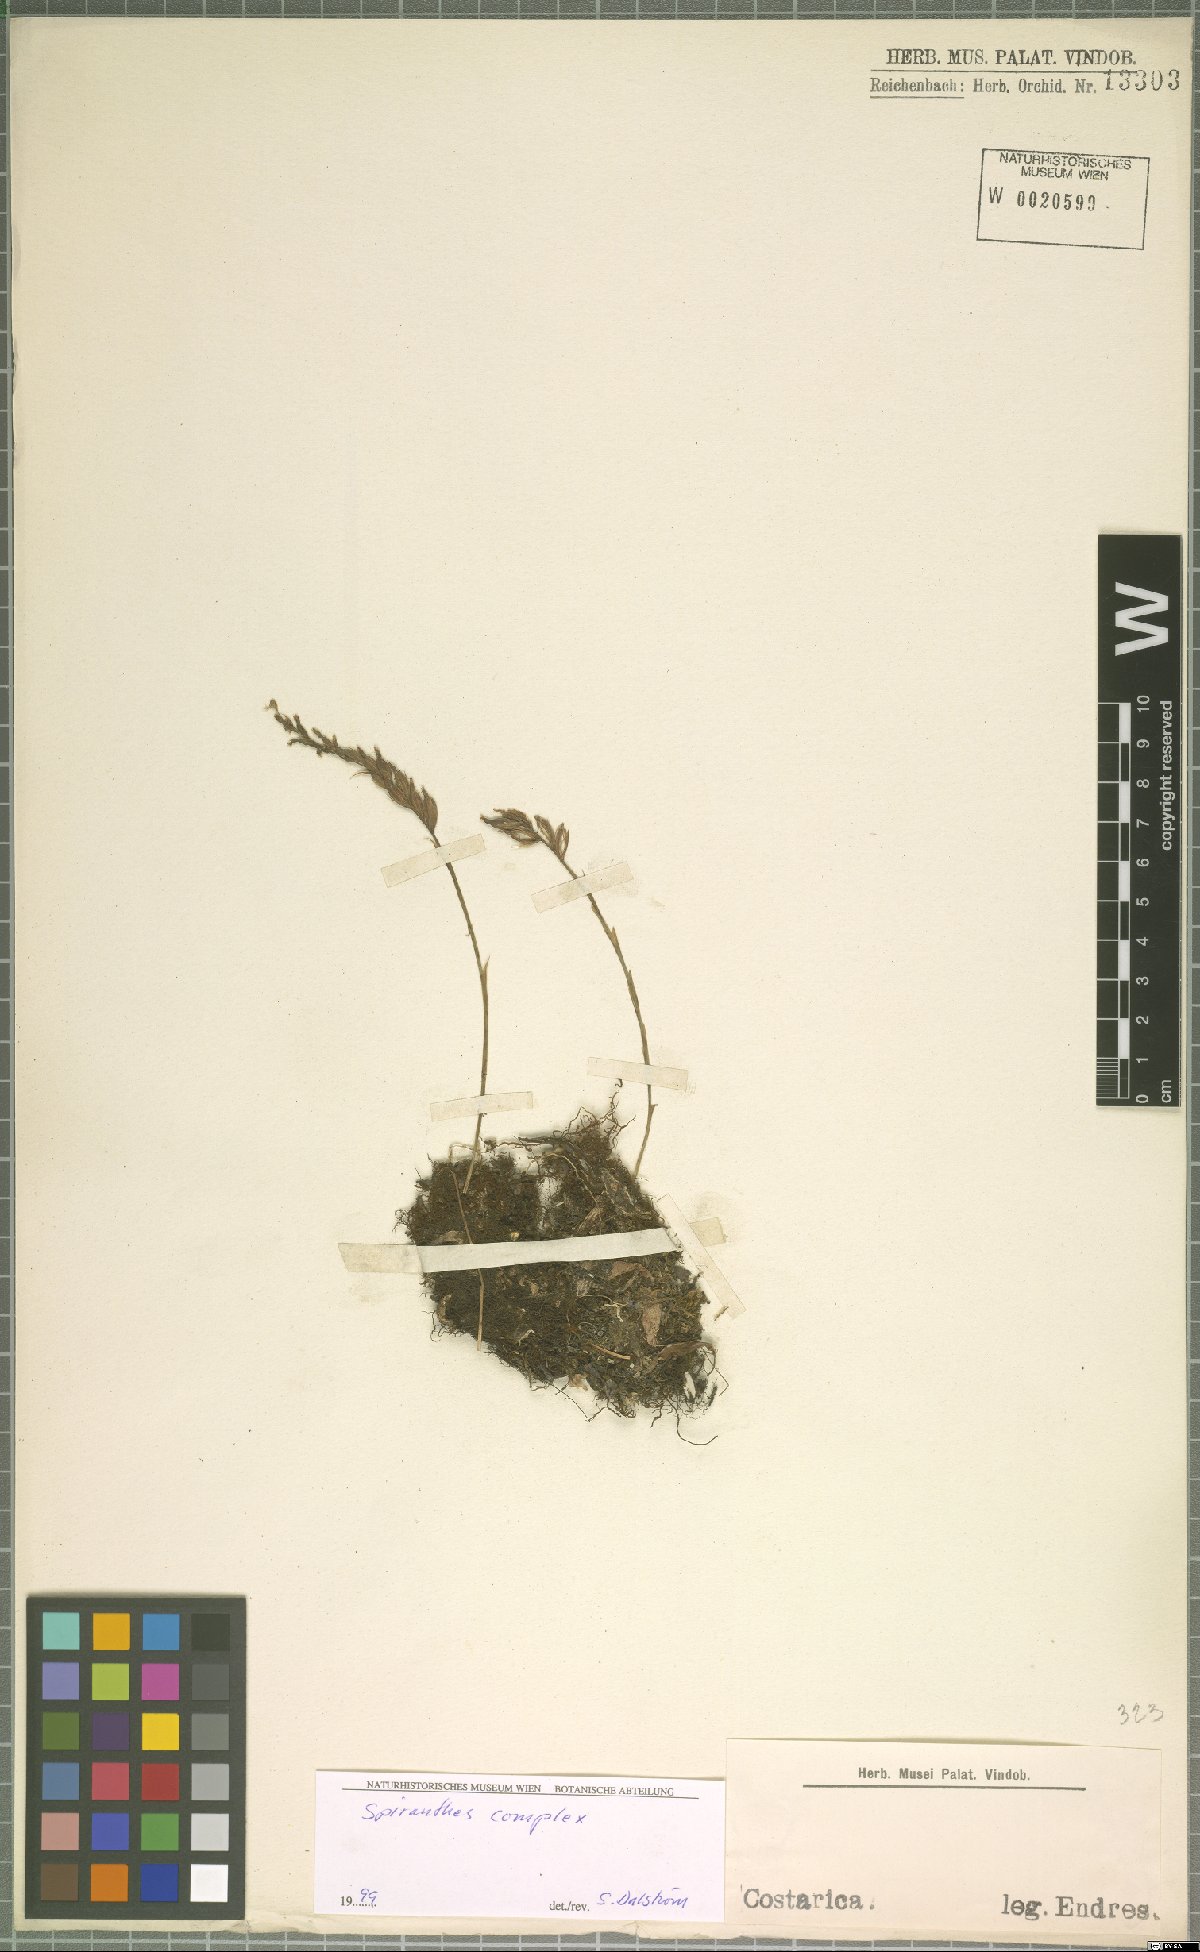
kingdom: Plantae
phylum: Tracheophyta
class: Liliopsida
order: Asparagales
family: Orchidaceae
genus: Spiranthes
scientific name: Spiranthes
